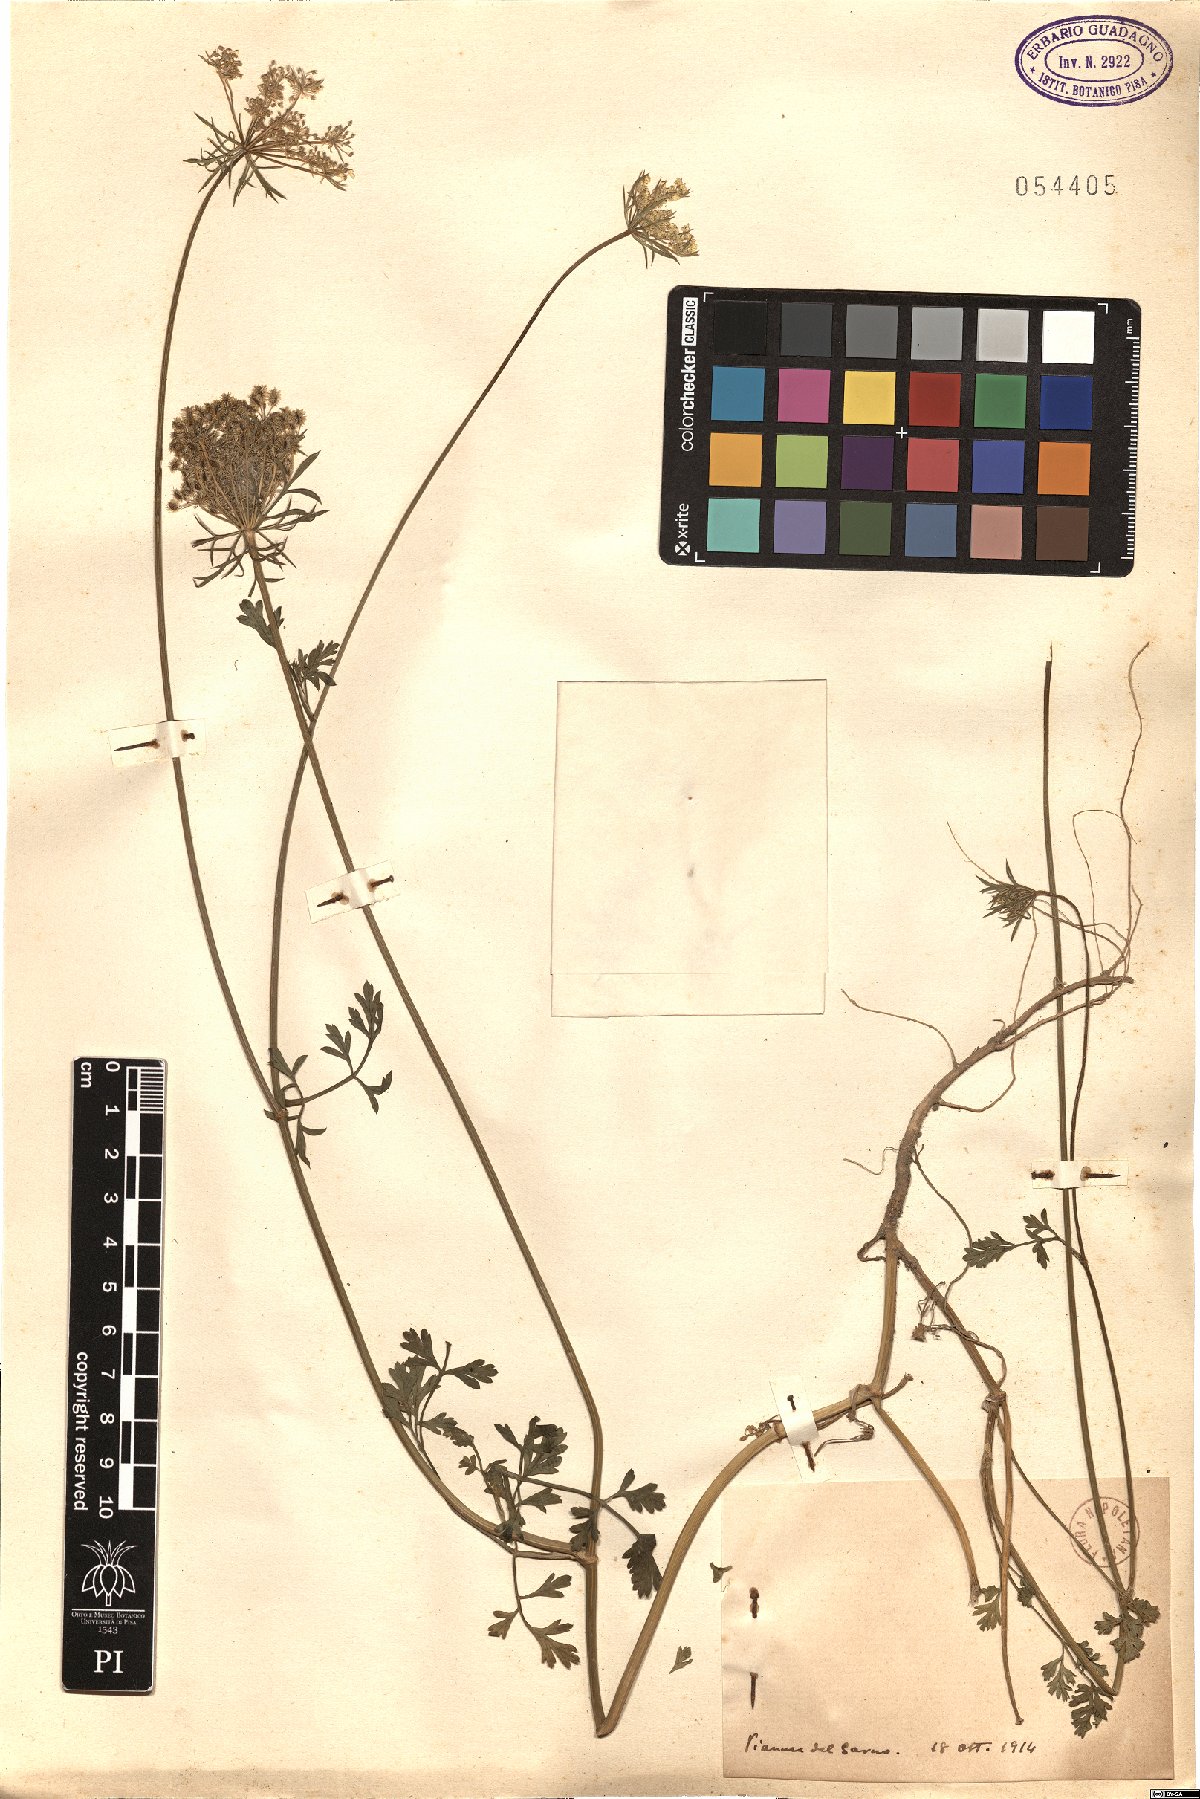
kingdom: Plantae
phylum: Tracheophyta
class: Magnoliopsida
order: Apiales
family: Apiaceae
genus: Daucus
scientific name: Daucus
